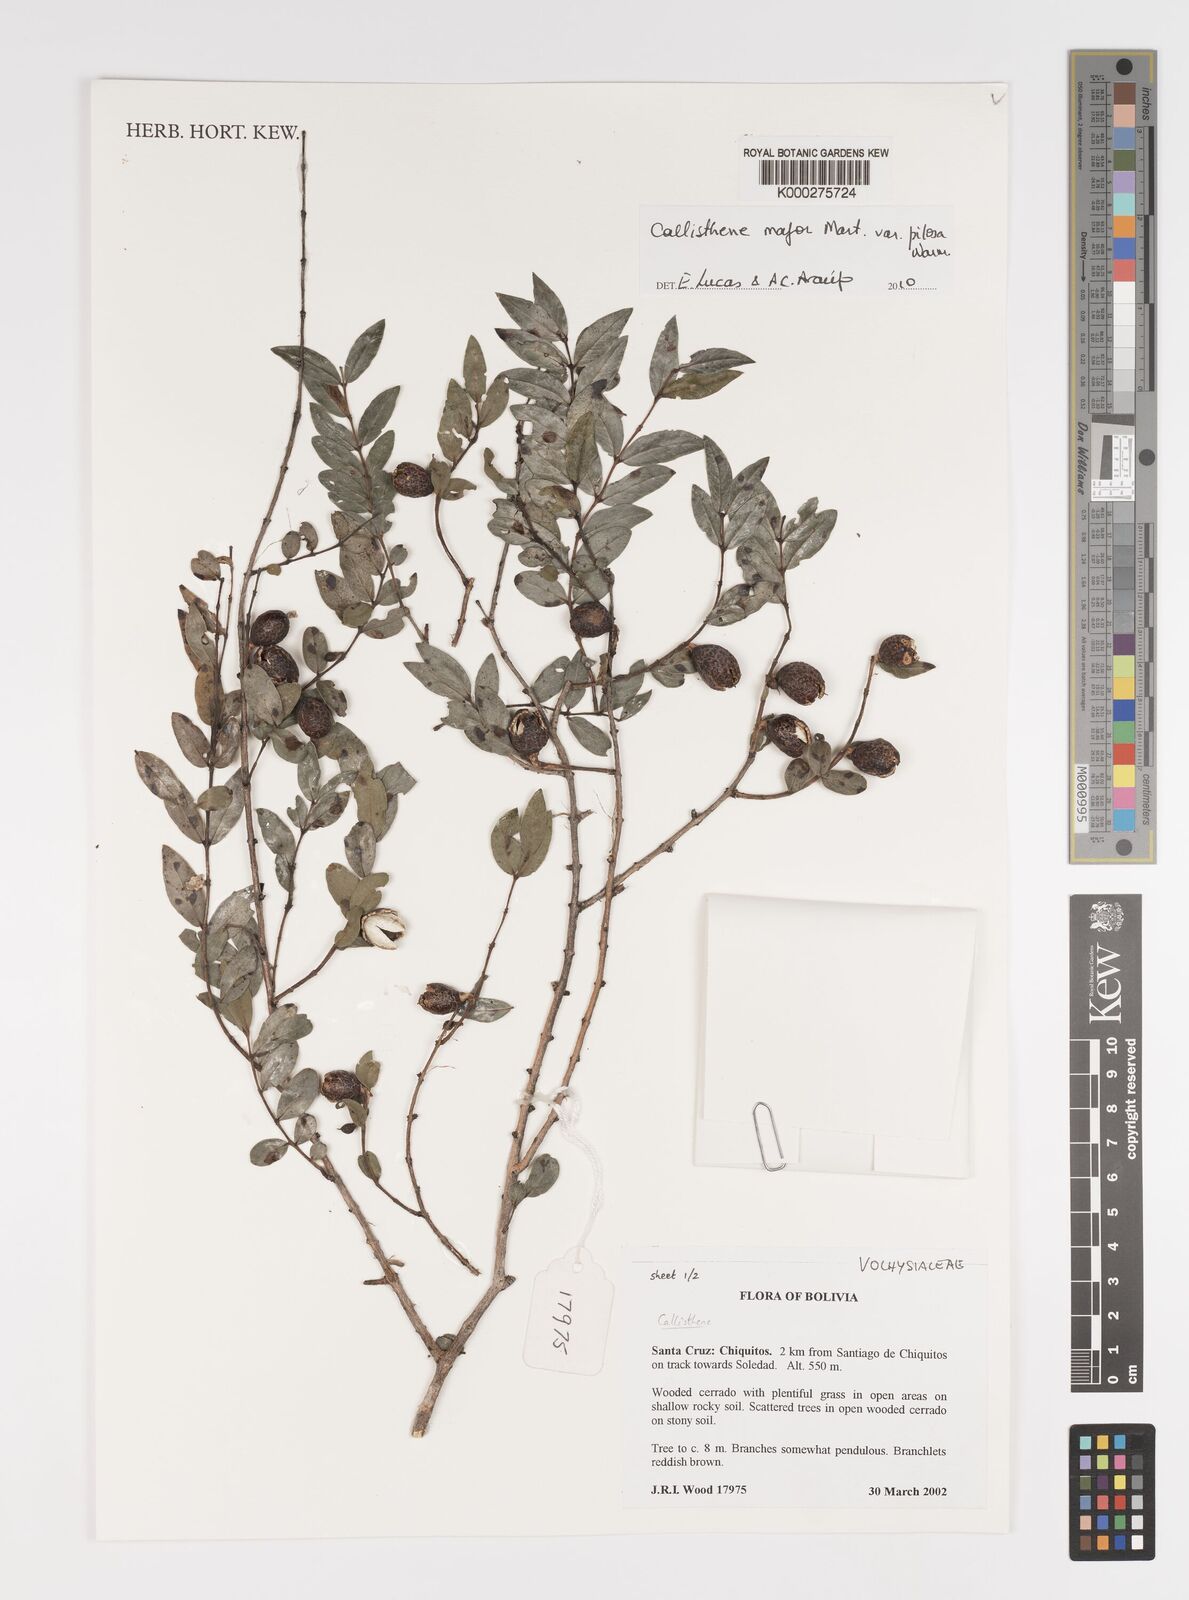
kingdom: Plantae
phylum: Tracheophyta
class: Magnoliopsida
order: Myrtales
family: Vochysiaceae
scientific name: Vochysiaceae
